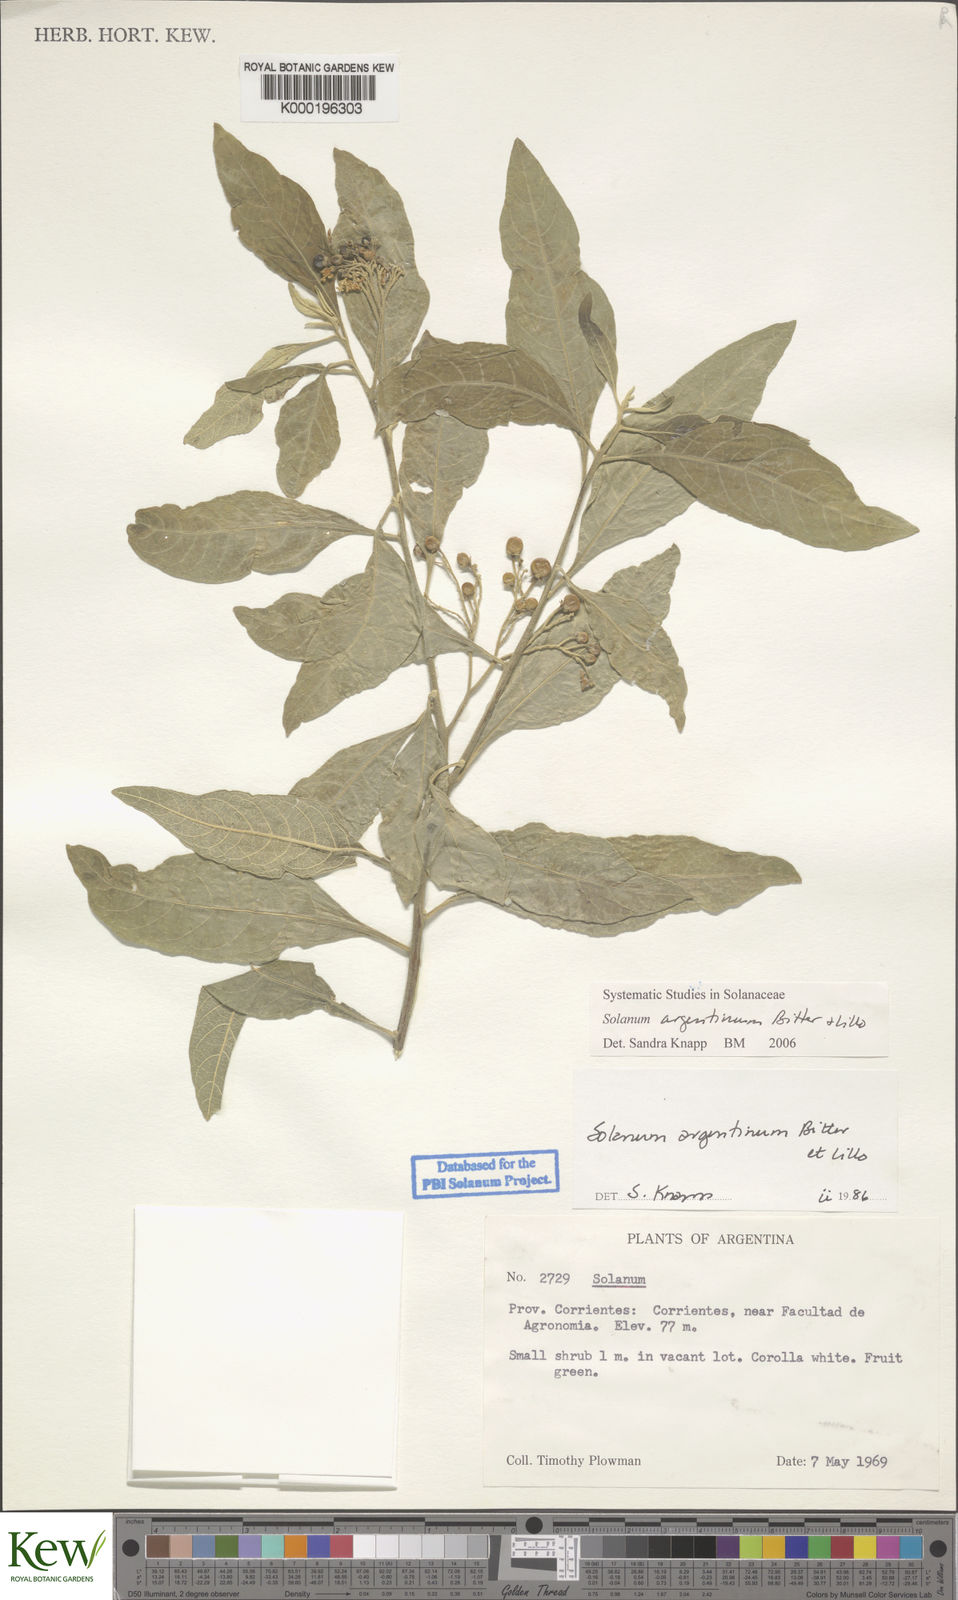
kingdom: Plantae
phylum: Tracheophyta
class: Magnoliopsida
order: Solanales
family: Solanaceae
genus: Solanum
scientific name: Solanum argentinum
